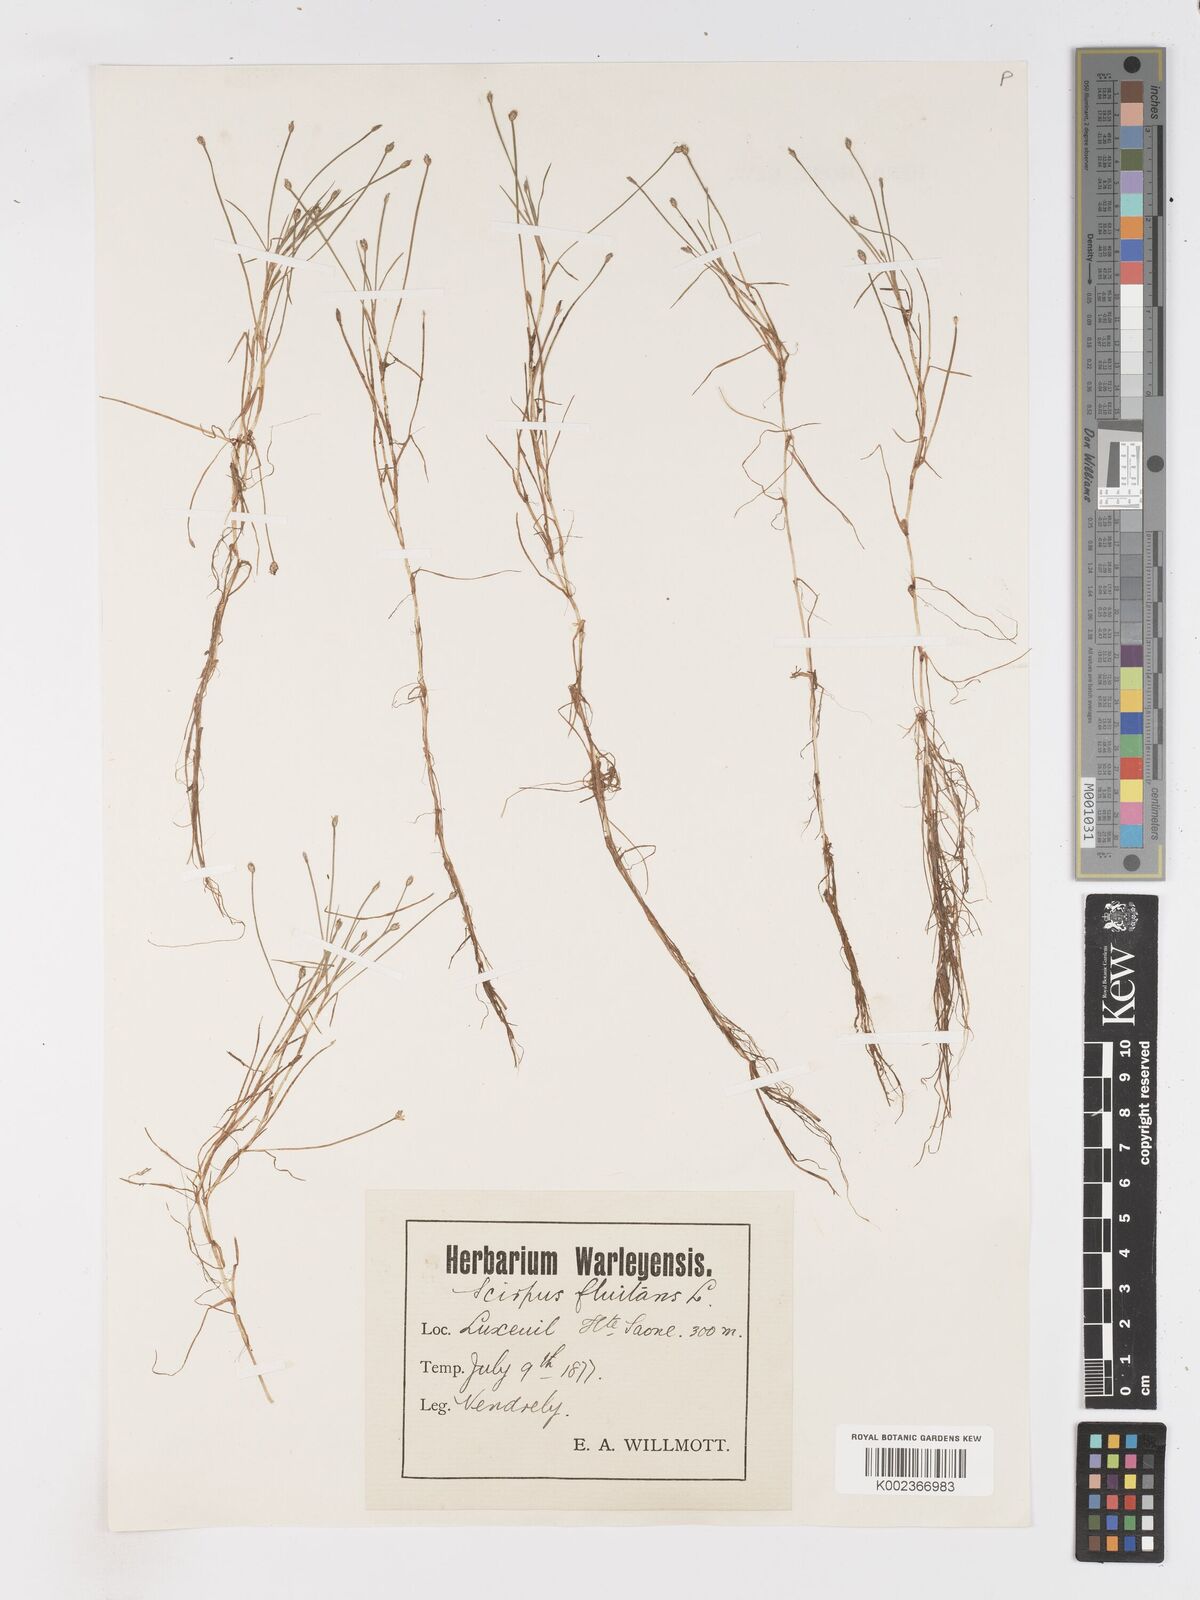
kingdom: Plantae
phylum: Tracheophyta
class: Liliopsida
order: Poales
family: Cyperaceae
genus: Isolepis
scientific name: Isolepis fluitans
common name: Floating club-rush
